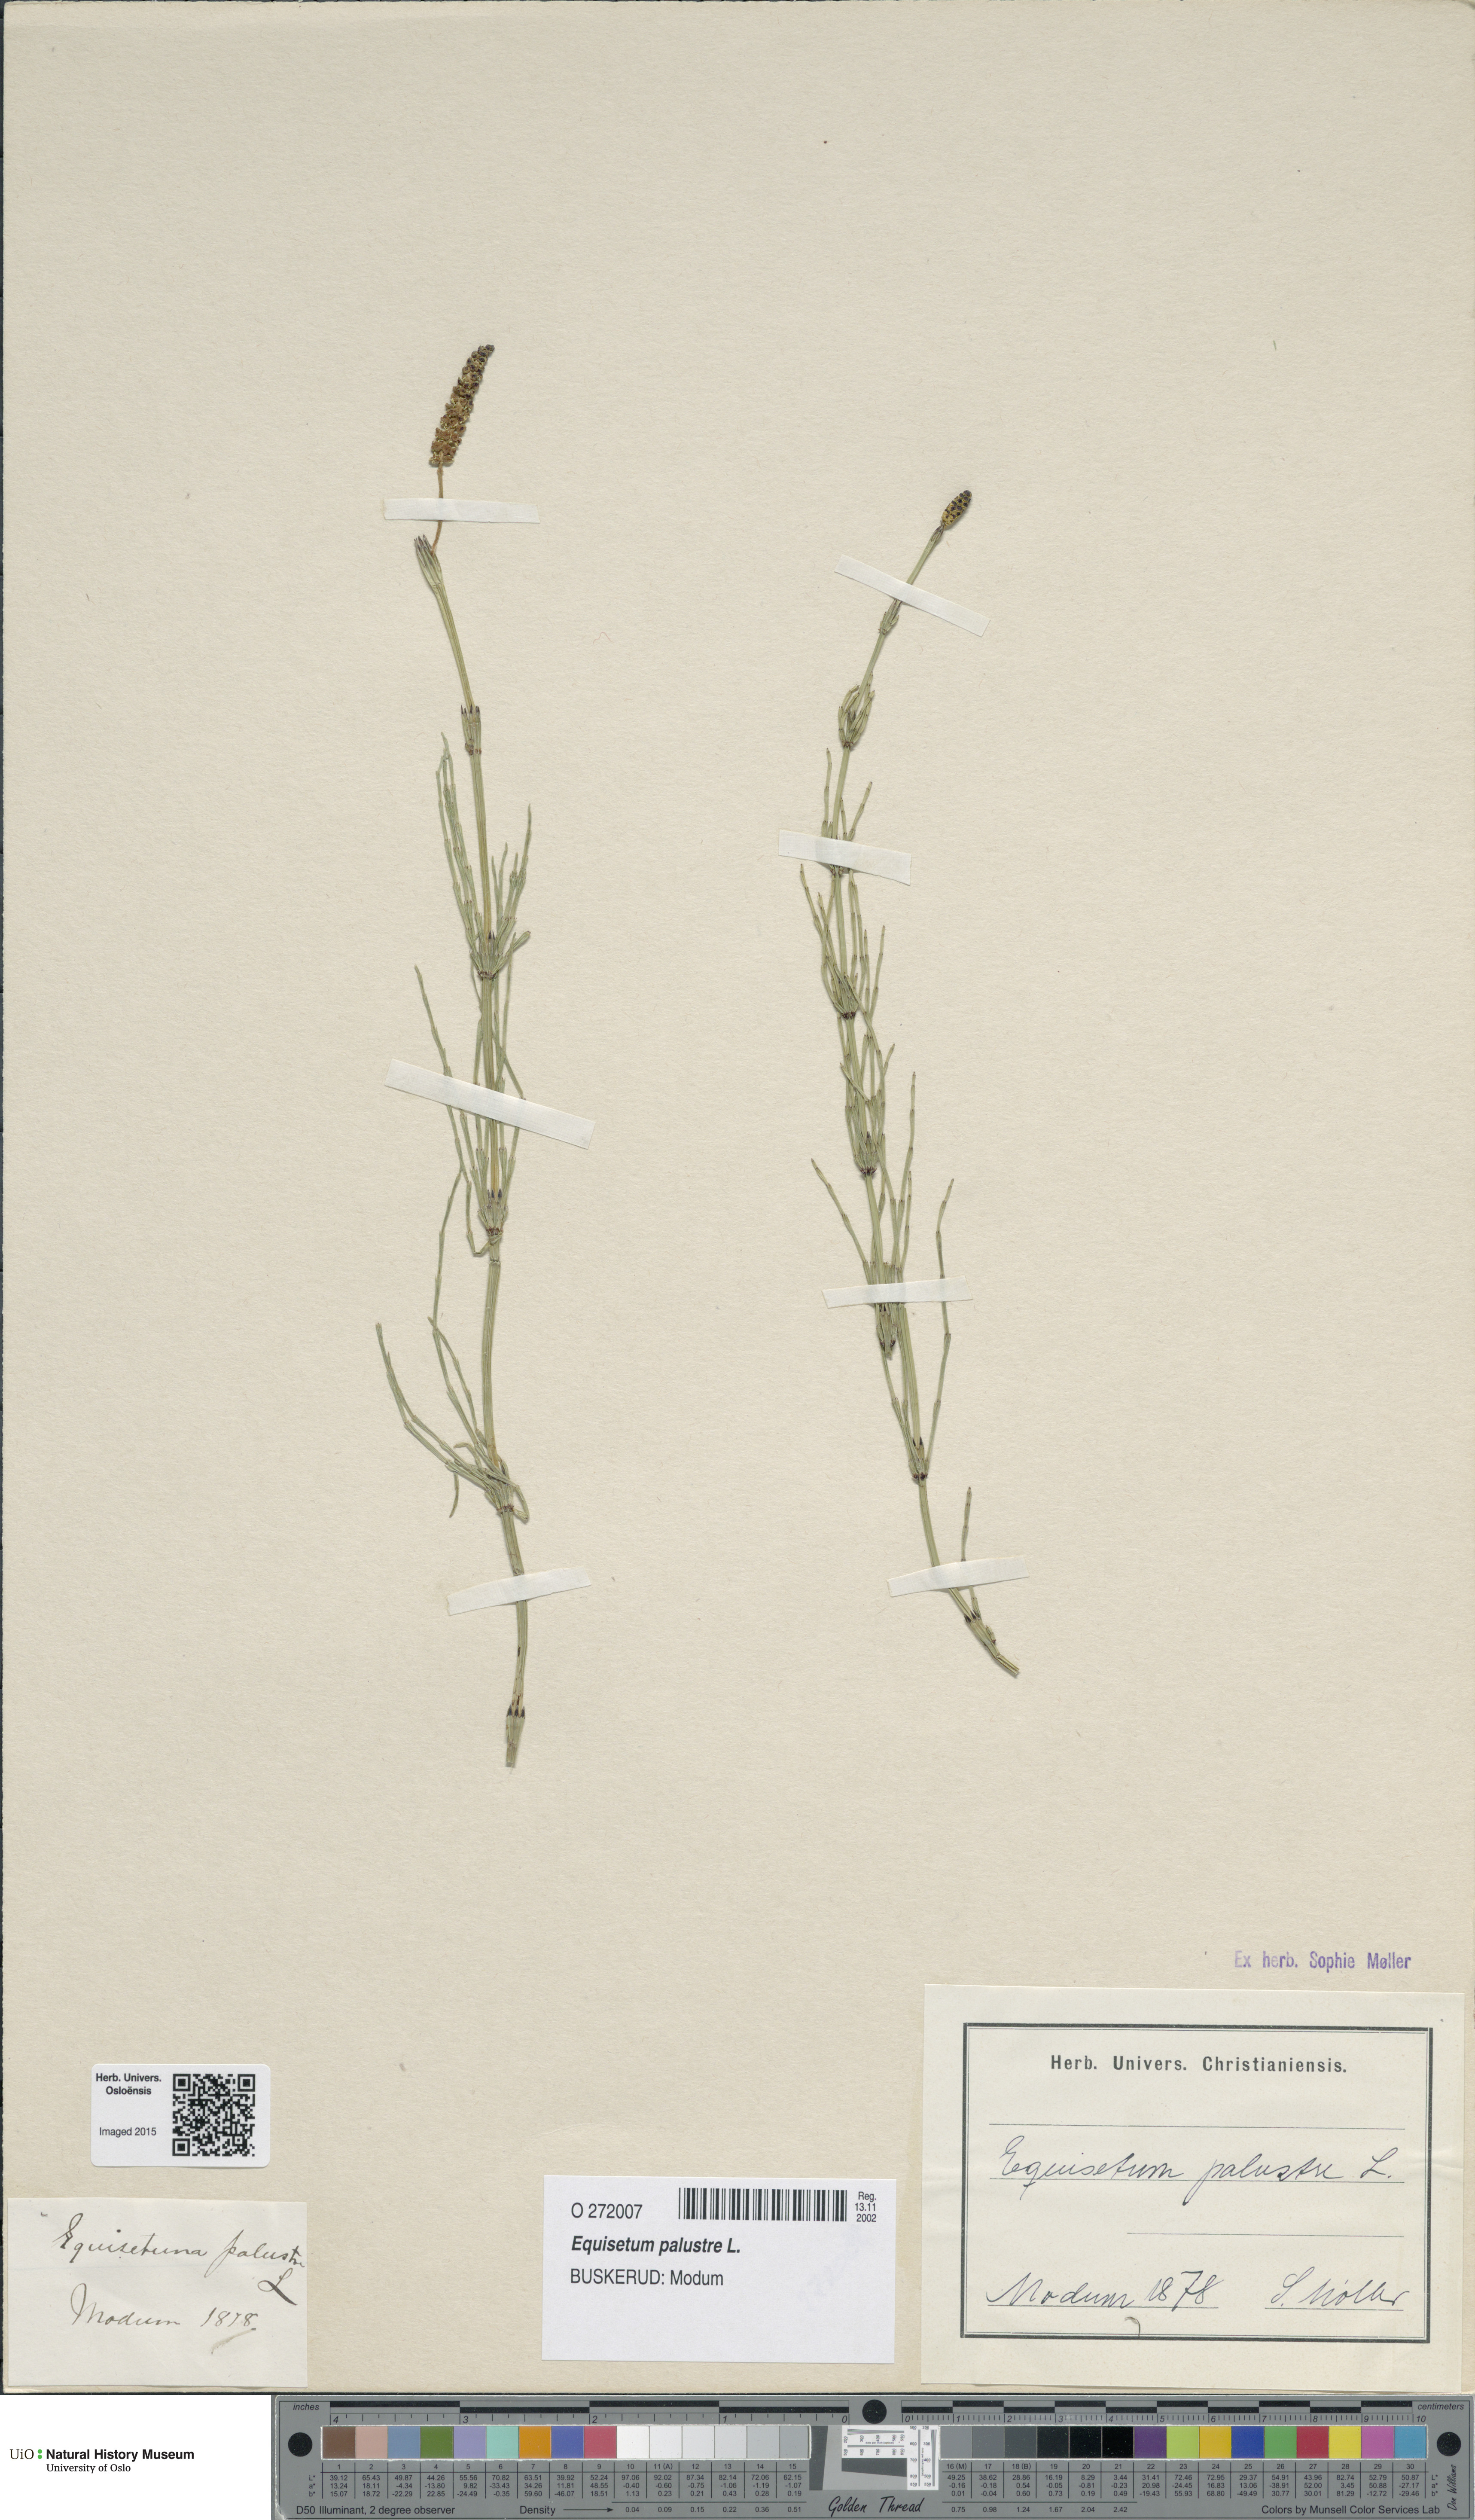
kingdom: Plantae
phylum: Tracheophyta
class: Polypodiopsida
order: Equisetales
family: Equisetaceae
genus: Equisetum
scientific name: Equisetum palustre
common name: Marsh horsetail
